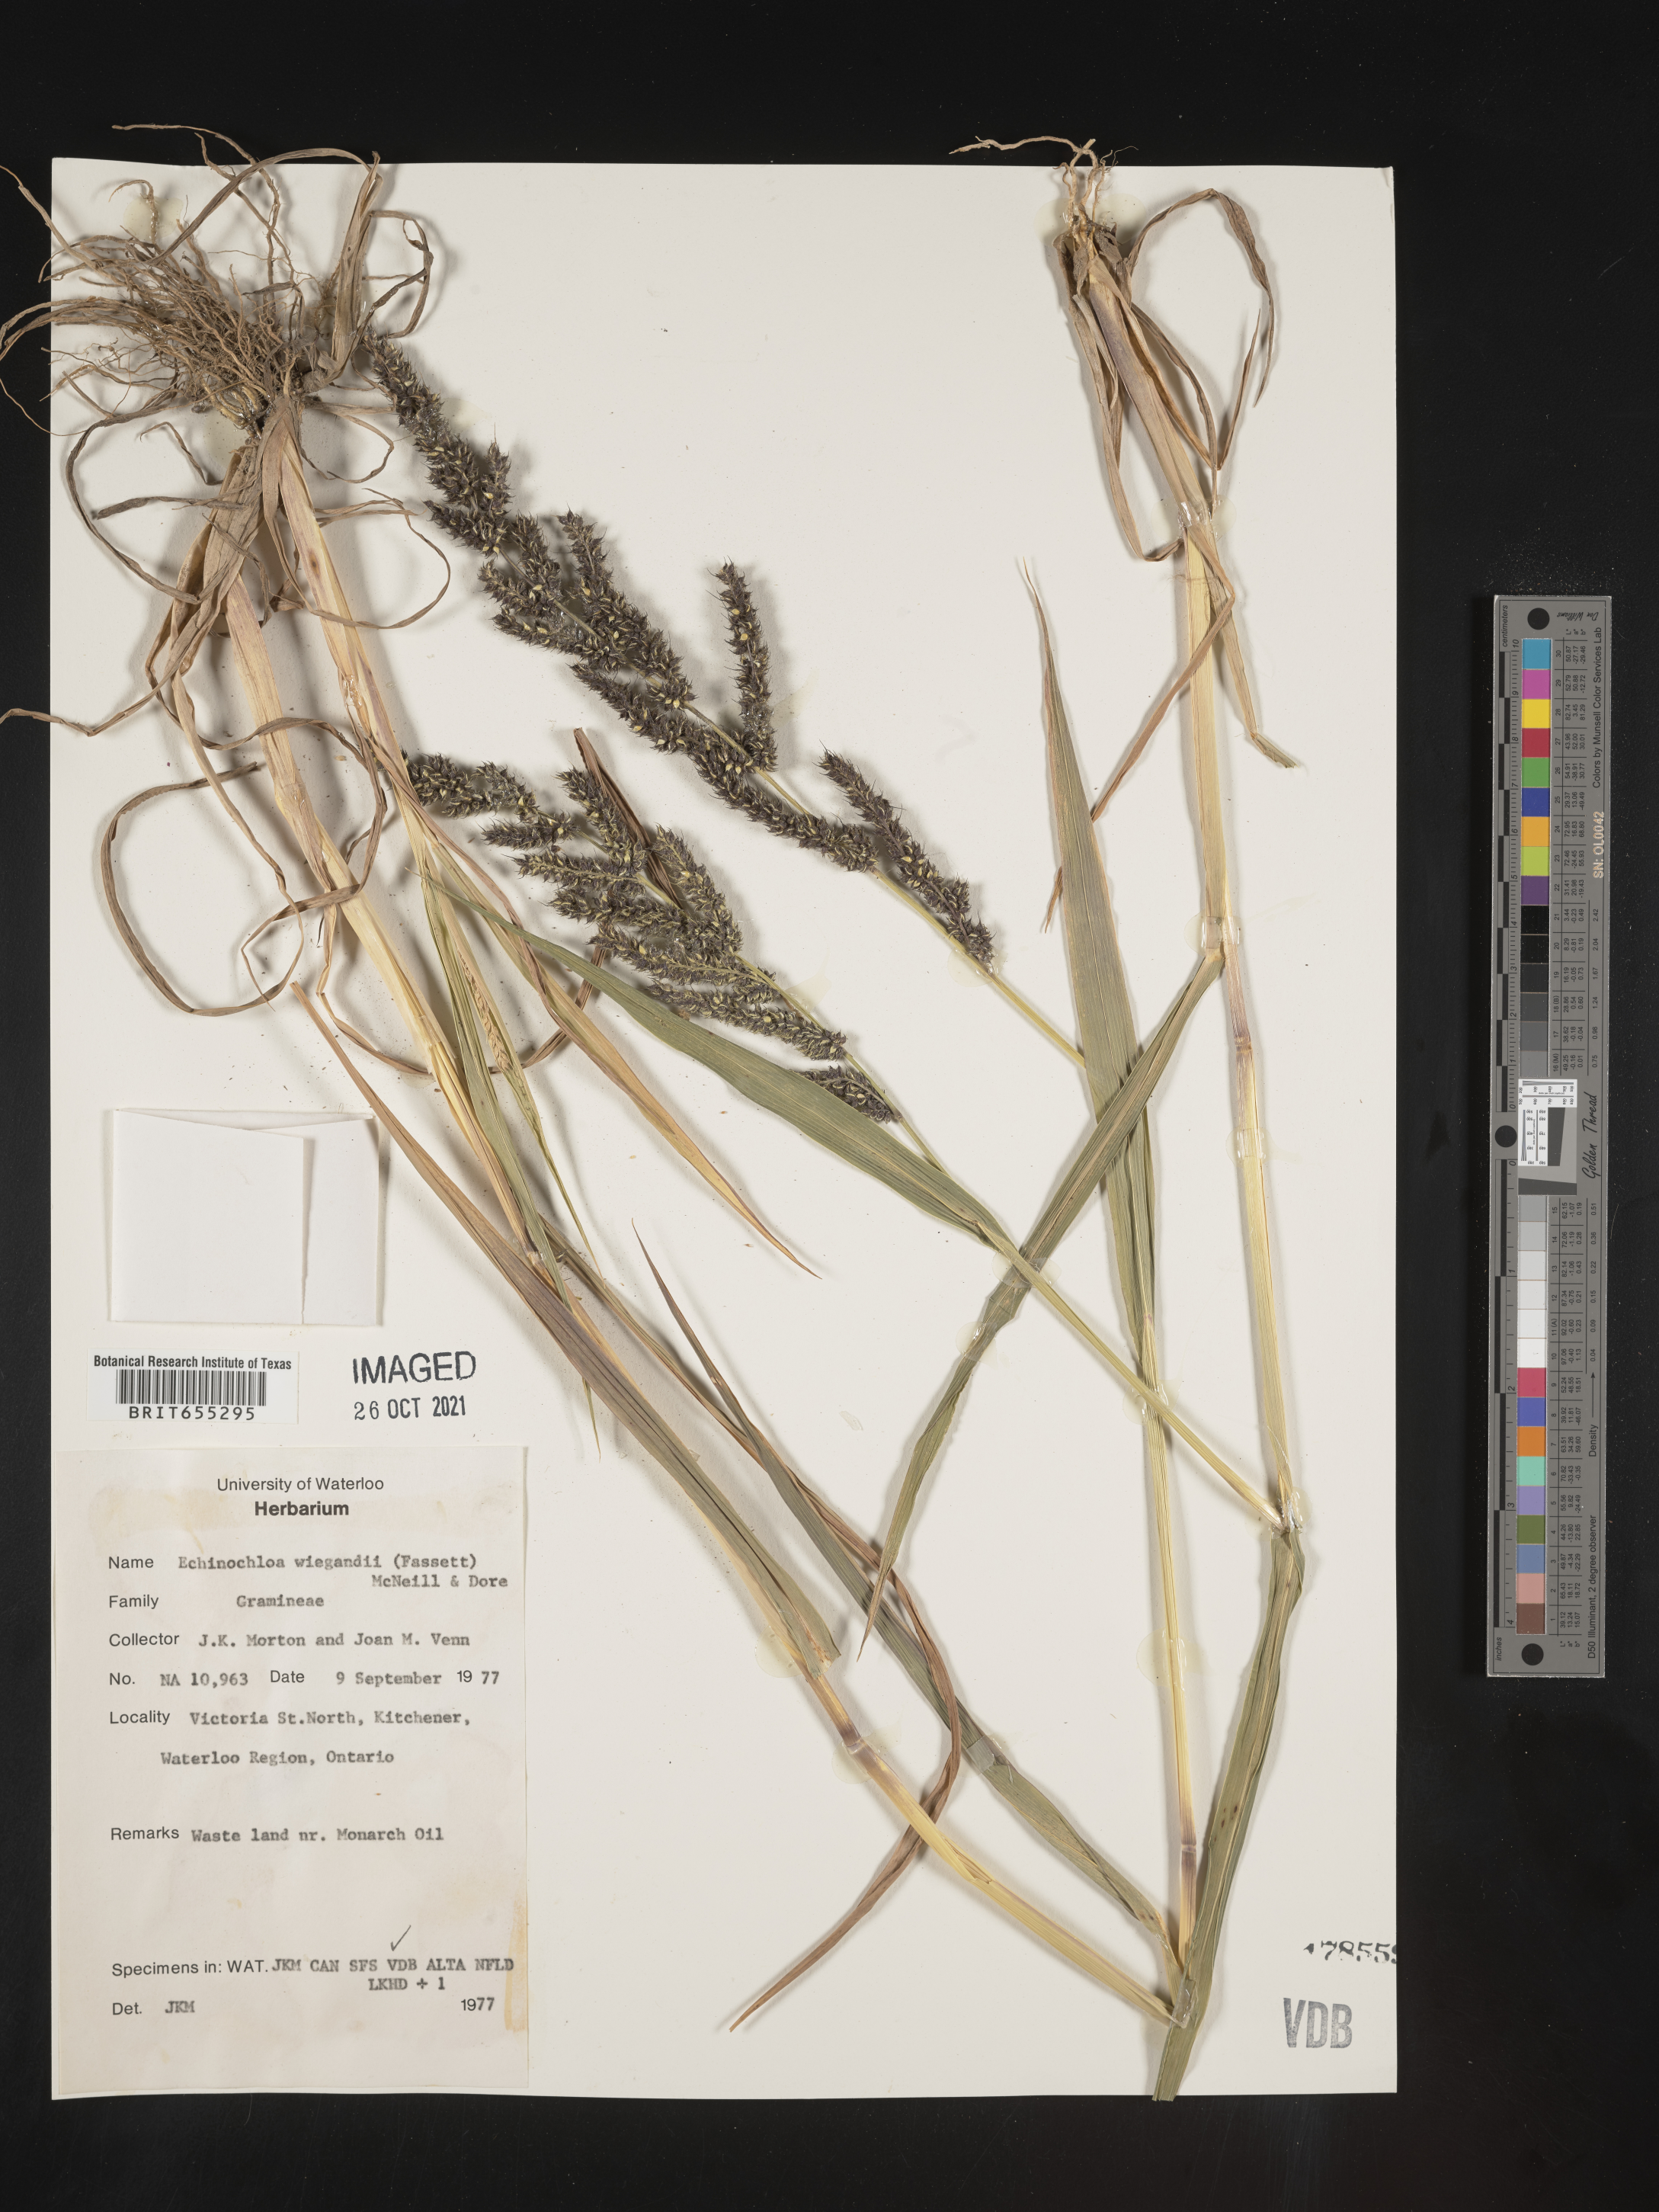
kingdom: Plantae
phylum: Tracheophyta
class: Liliopsida
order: Poales
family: Poaceae
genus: Echinochloa
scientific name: Echinochloa
